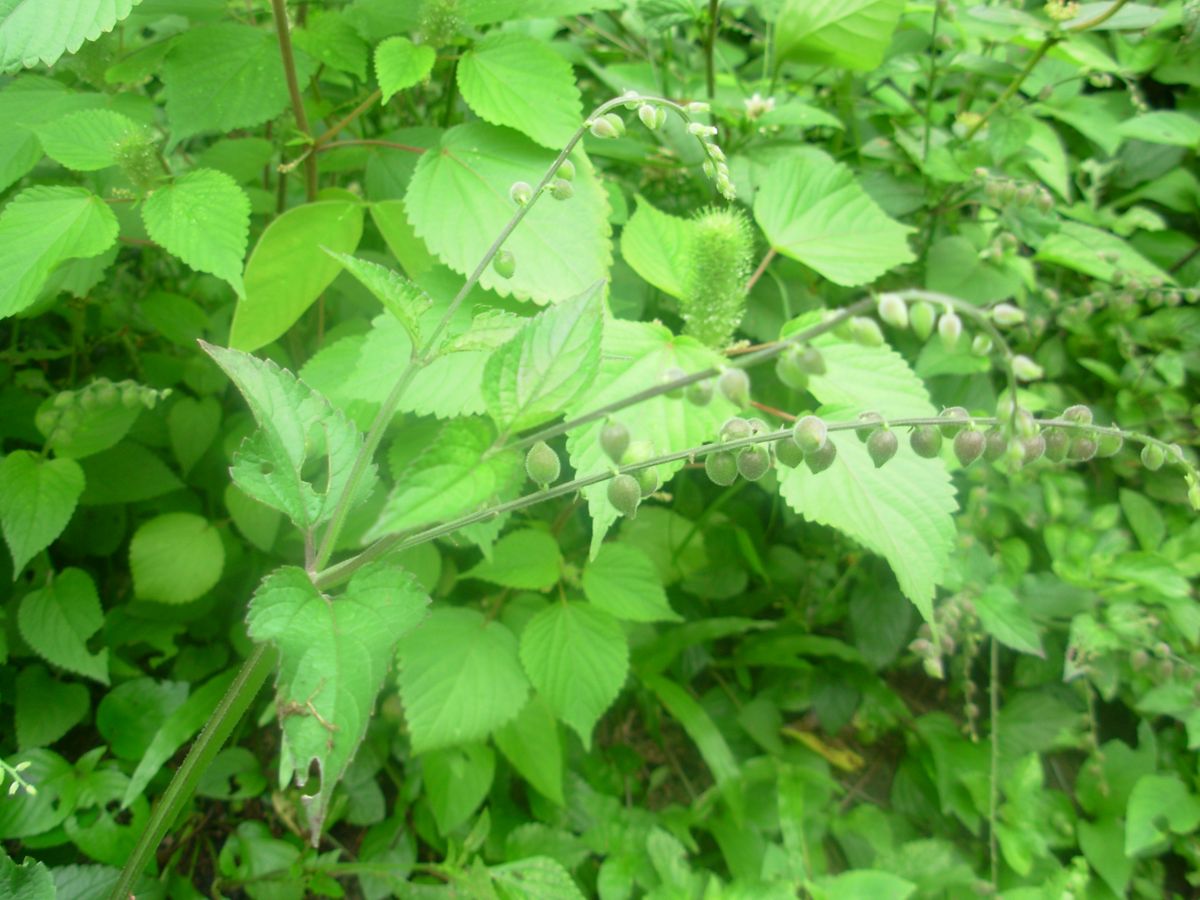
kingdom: Plantae
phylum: Tracheophyta
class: Magnoliopsida
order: Lamiales
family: Verbenaceae
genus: Priva
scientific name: Priva lappulacea
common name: Fasten-'pon-coat
